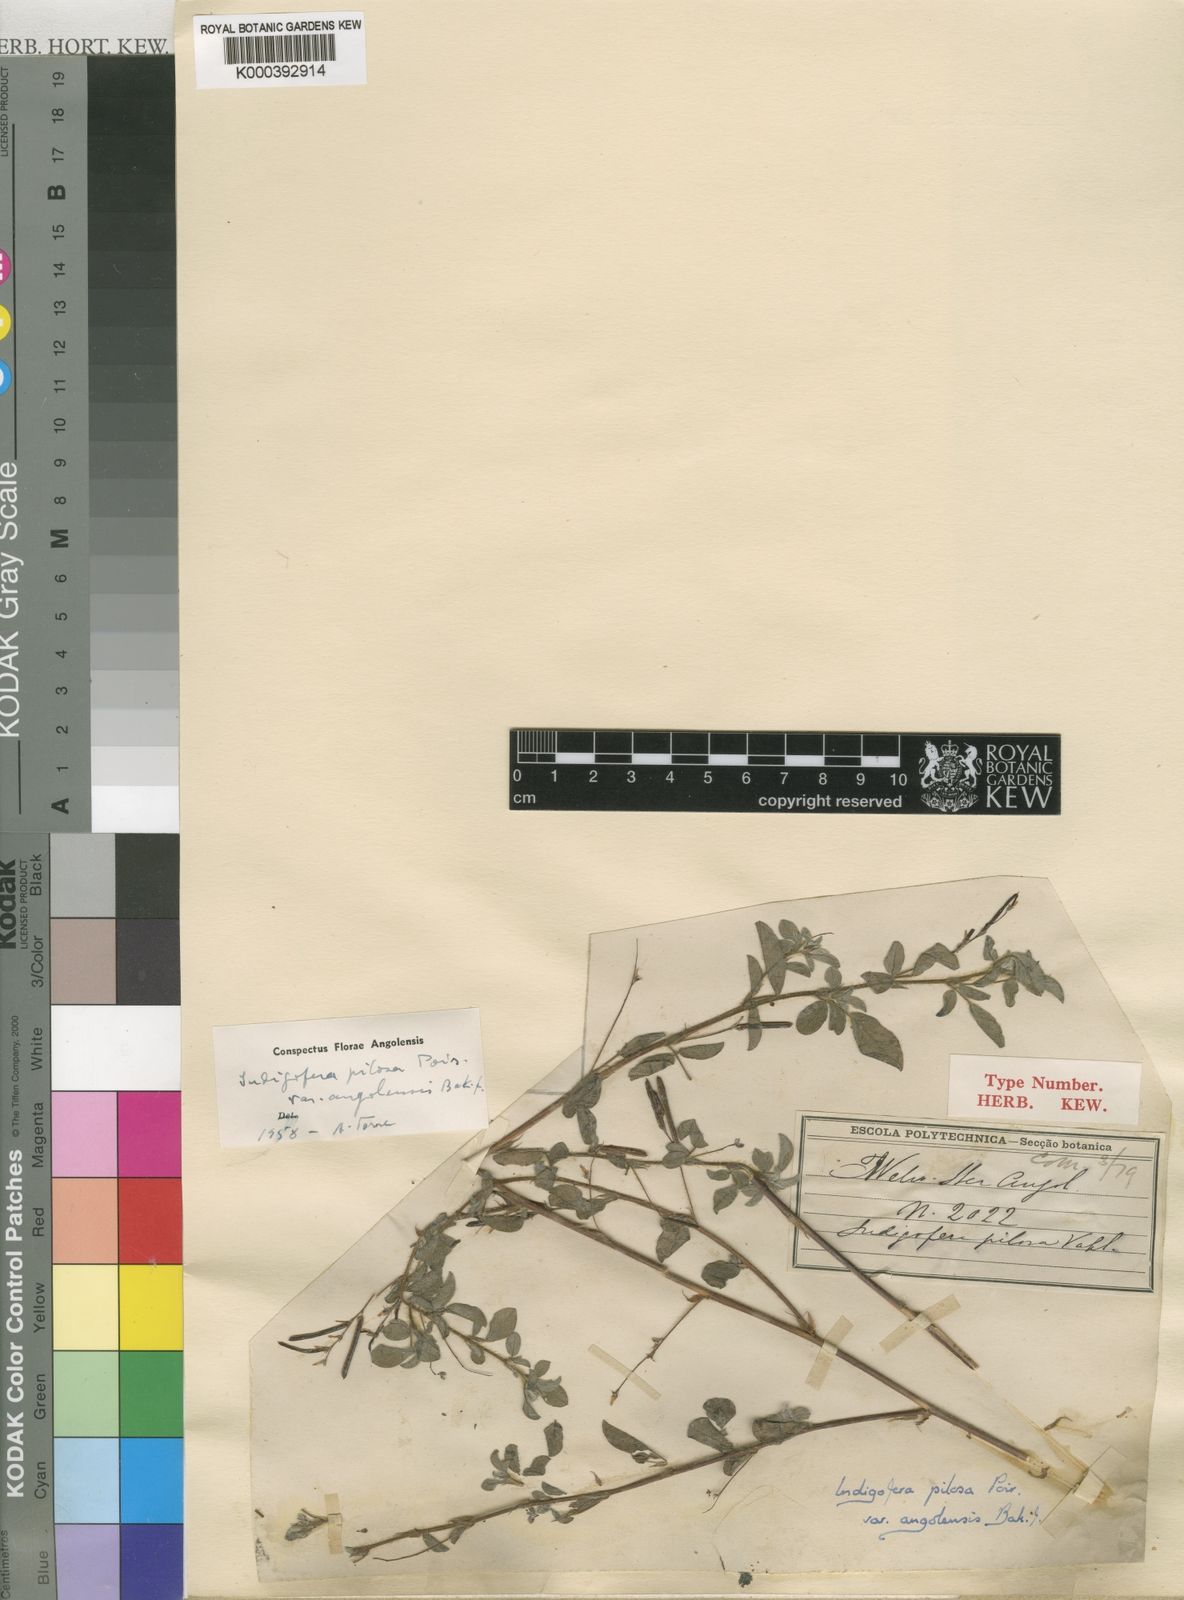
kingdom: Plantae
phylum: Tracheophyta
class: Magnoliopsida
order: Fabales
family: Fabaceae
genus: Indigofera
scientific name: Indigofera pilosa
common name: Softhairy indigo
